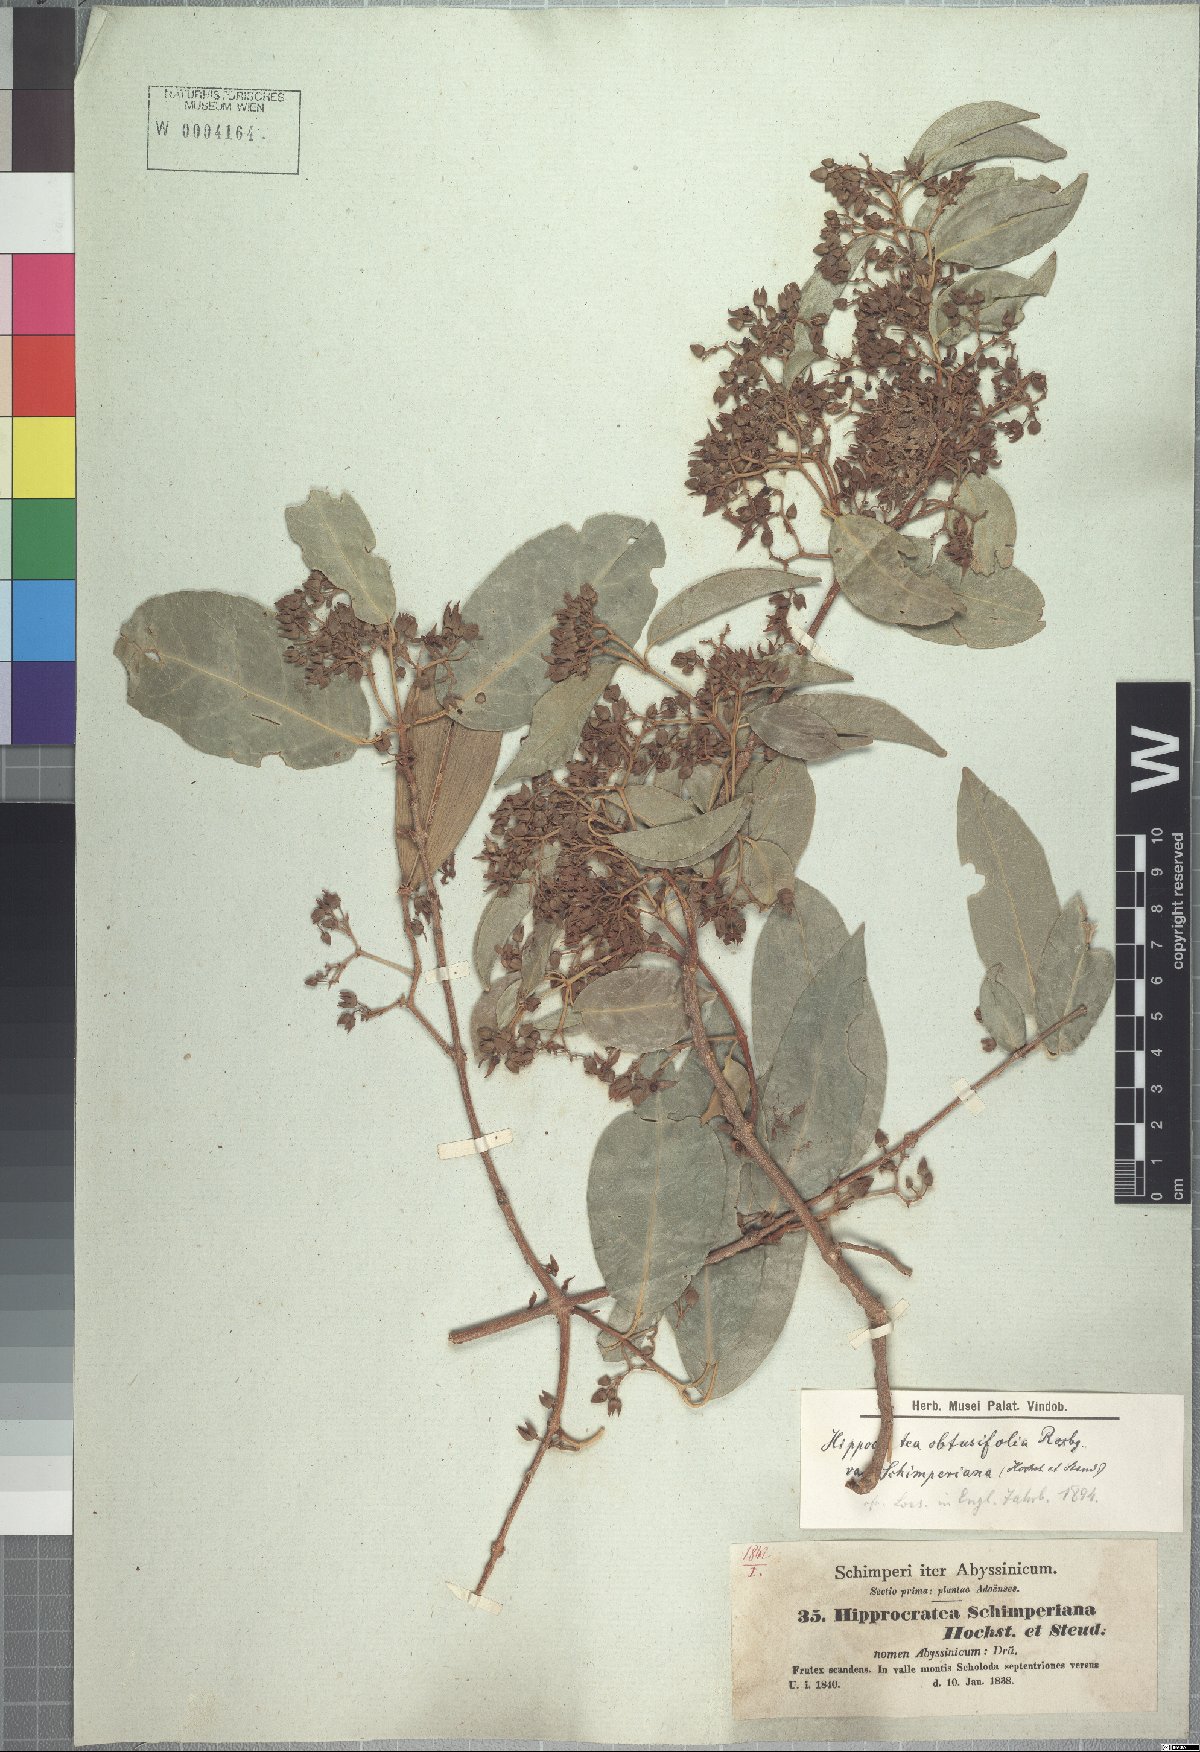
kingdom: Plantae
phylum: Tracheophyta
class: Magnoliopsida
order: Celastrales
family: Celastraceae
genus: Loeseneriella
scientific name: Loeseneriella africana
